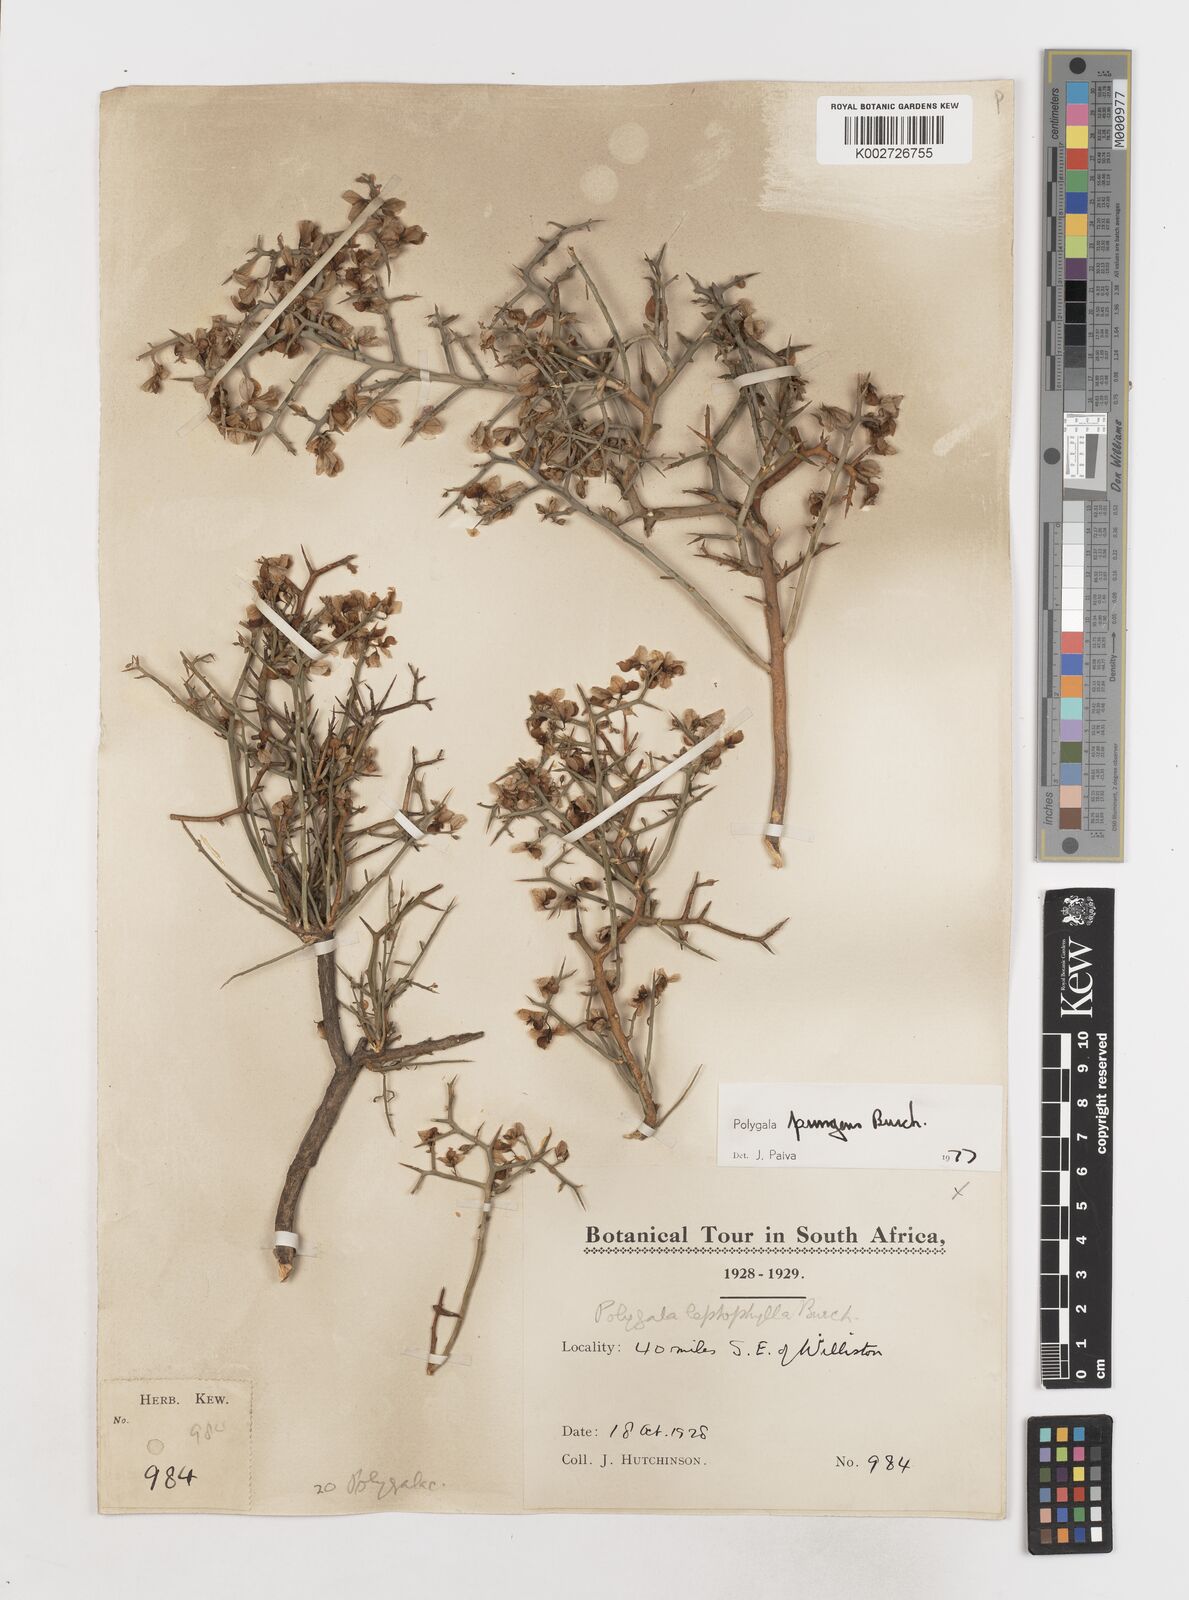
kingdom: Plantae
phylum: Tracheophyta
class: Magnoliopsida
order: Fabales
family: Polygalaceae
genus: Polygala
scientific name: Polygala pungens
